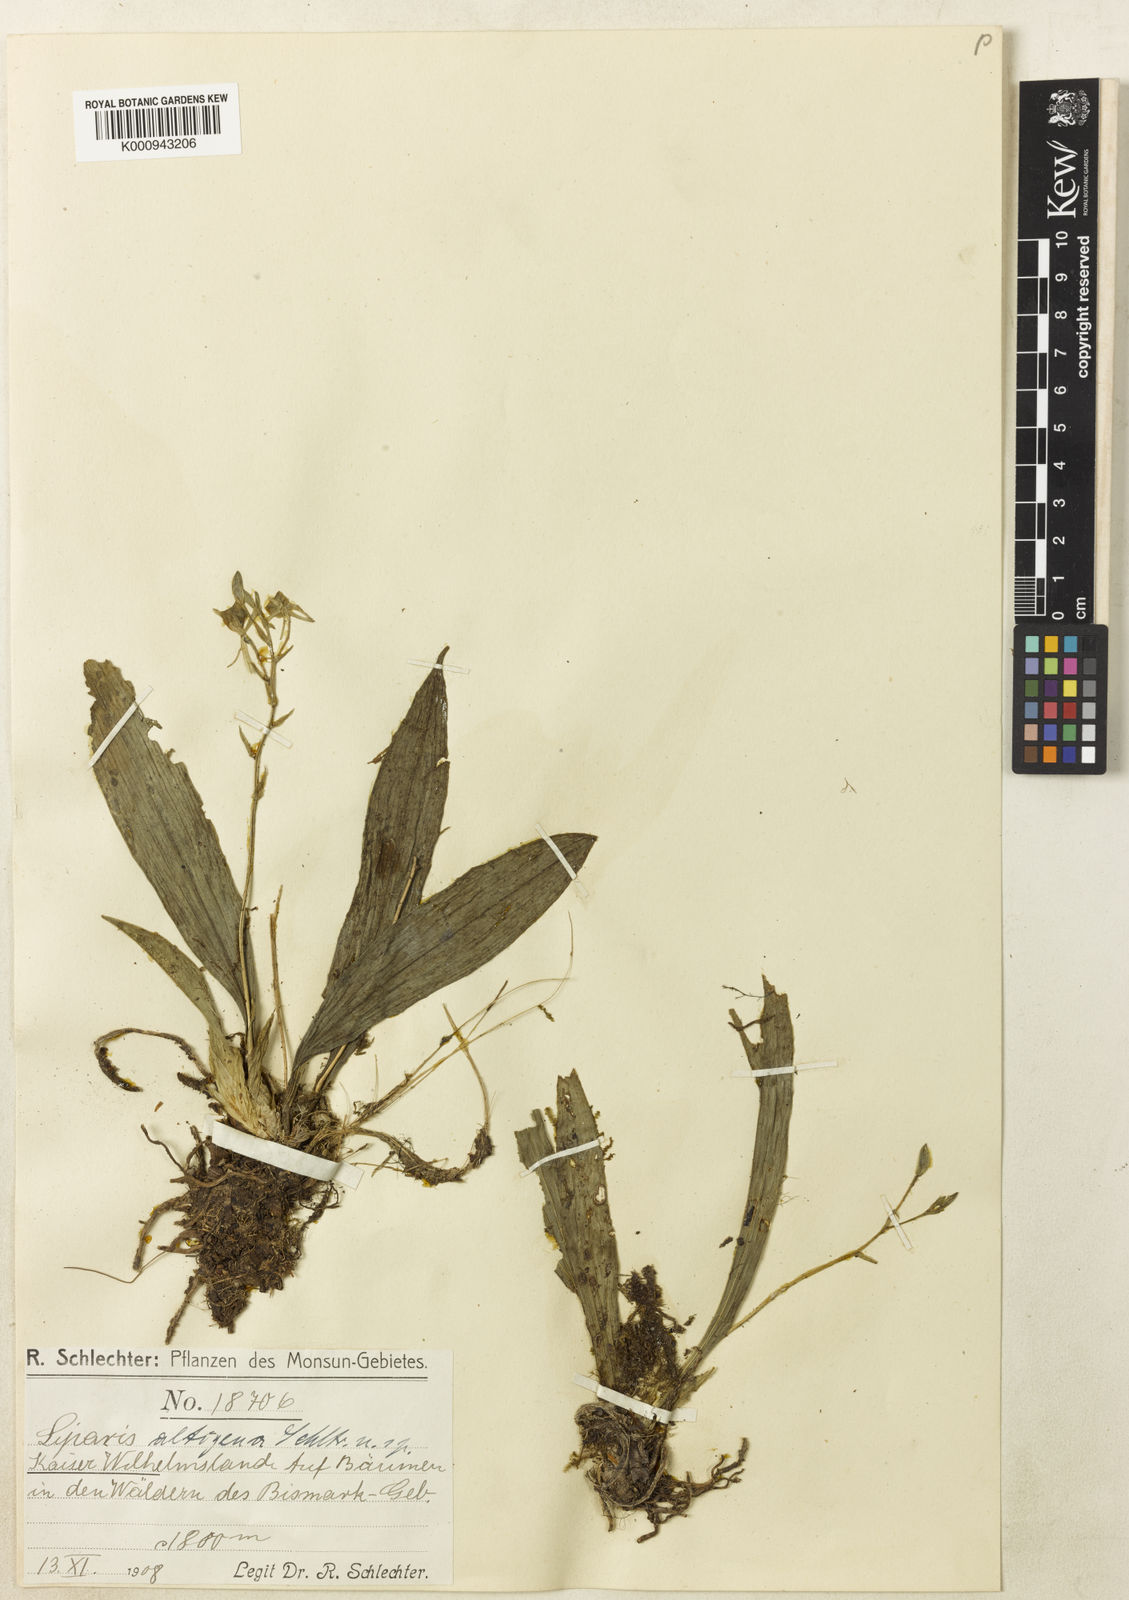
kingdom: Plantae
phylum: Tracheophyta
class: Liliopsida
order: Asparagales
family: Orchidaceae
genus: Liparis
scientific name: Liparis altigena
